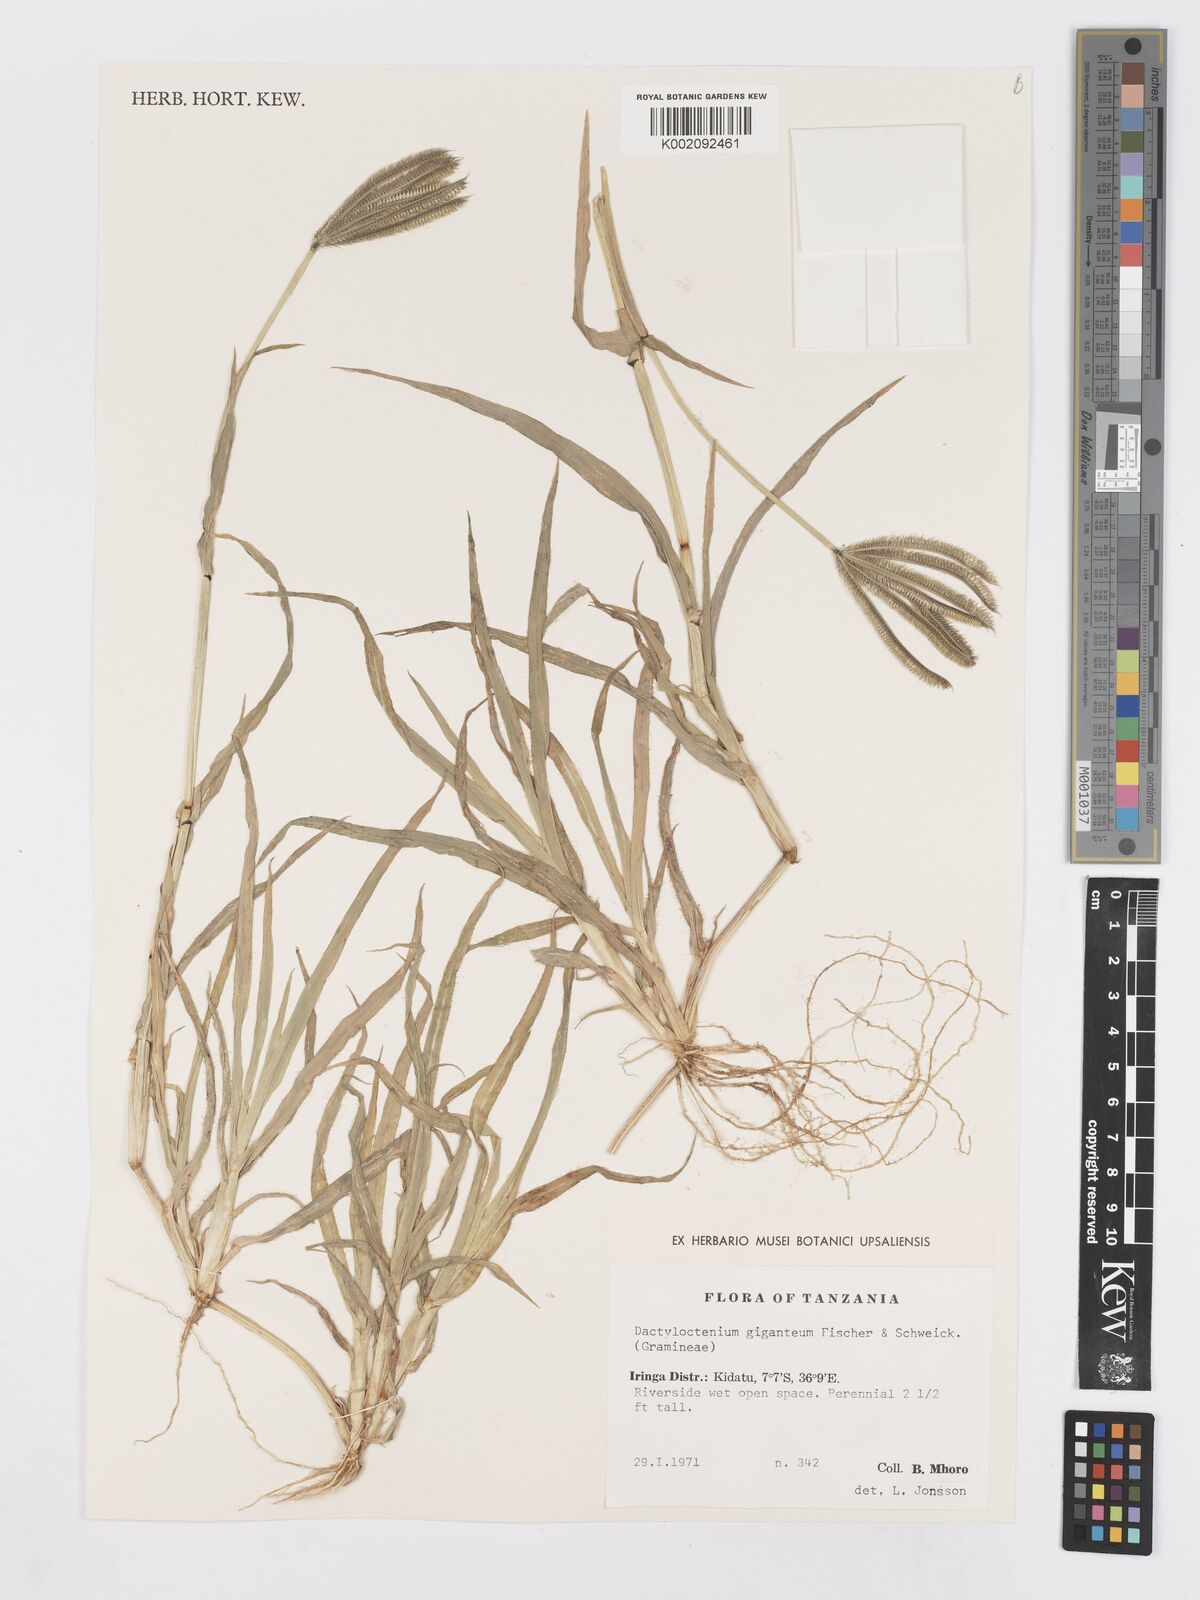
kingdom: Plantae
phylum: Tracheophyta
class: Liliopsida
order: Poales
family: Poaceae
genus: Dactyloctenium
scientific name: Dactyloctenium giganteum
